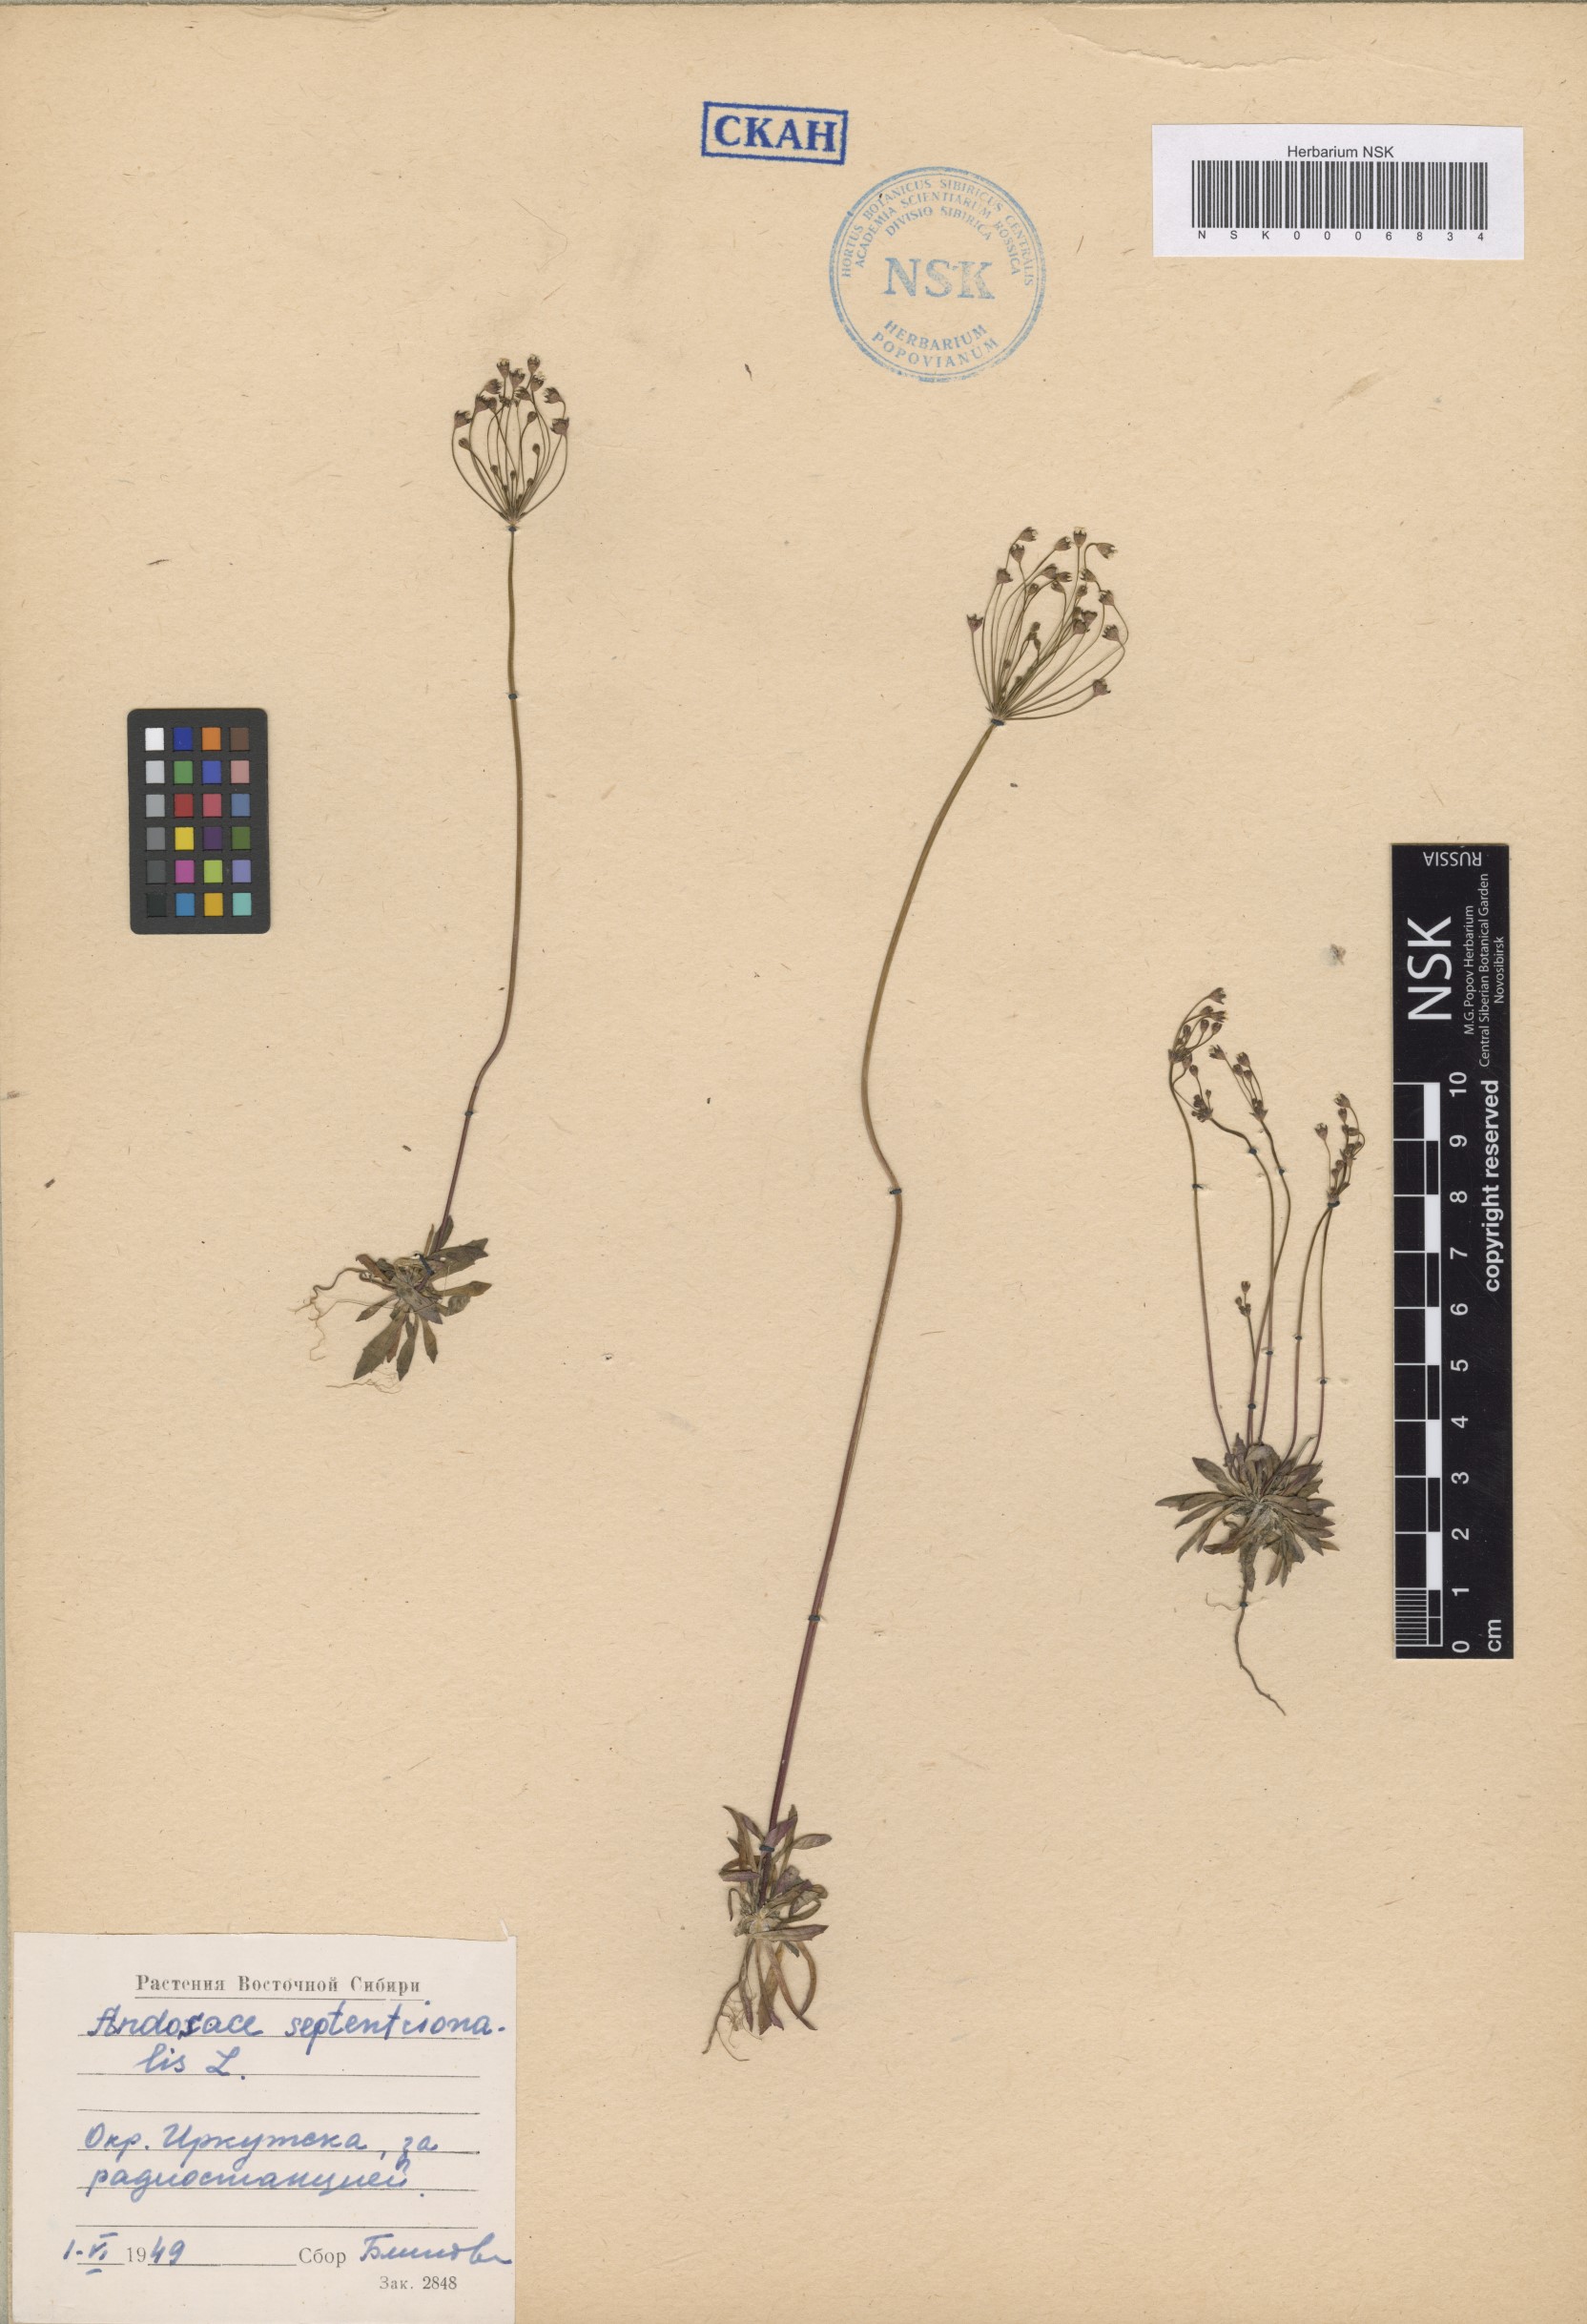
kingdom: Plantae
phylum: Tracheophyta
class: Magnoliopsida
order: Ericales
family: Primulaceae
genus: Androsace
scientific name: Androsace septentrionalis
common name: Hairy northern fairy-candelabra
